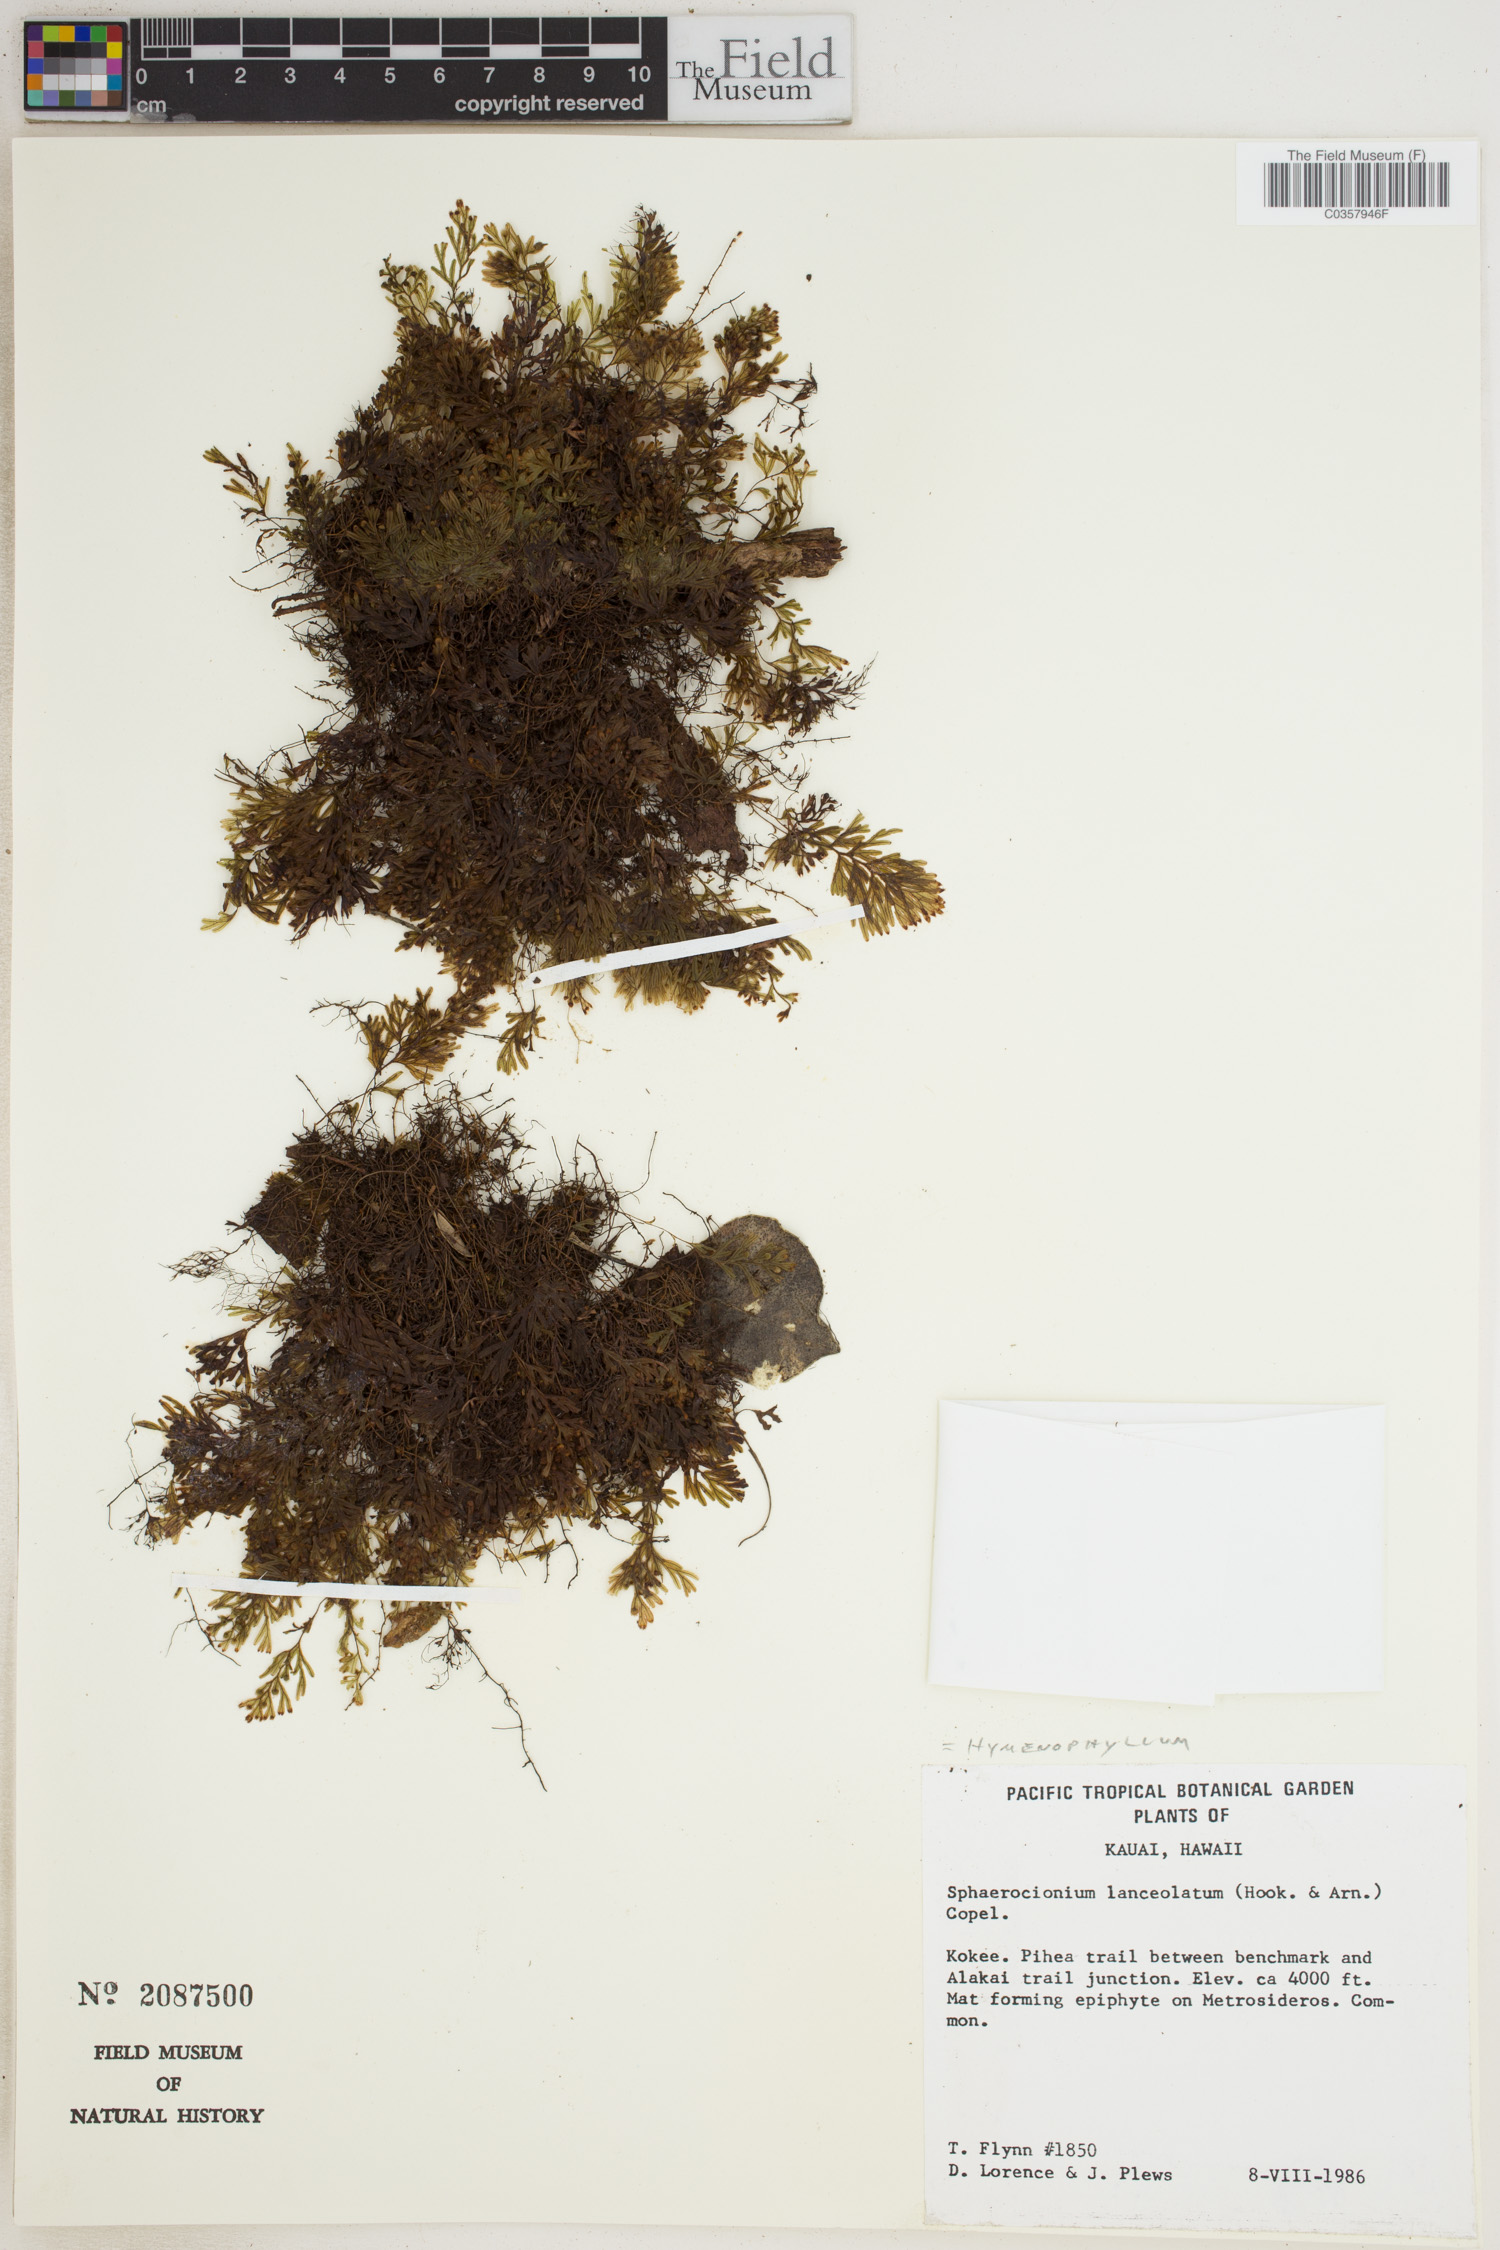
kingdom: Plantae
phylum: Tracheophyta
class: Polypodiopsida
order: Hymenophyllales
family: Hymenophyllaceae
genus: Hymenophyllum
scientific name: Hymenophyllum lanceolatum
